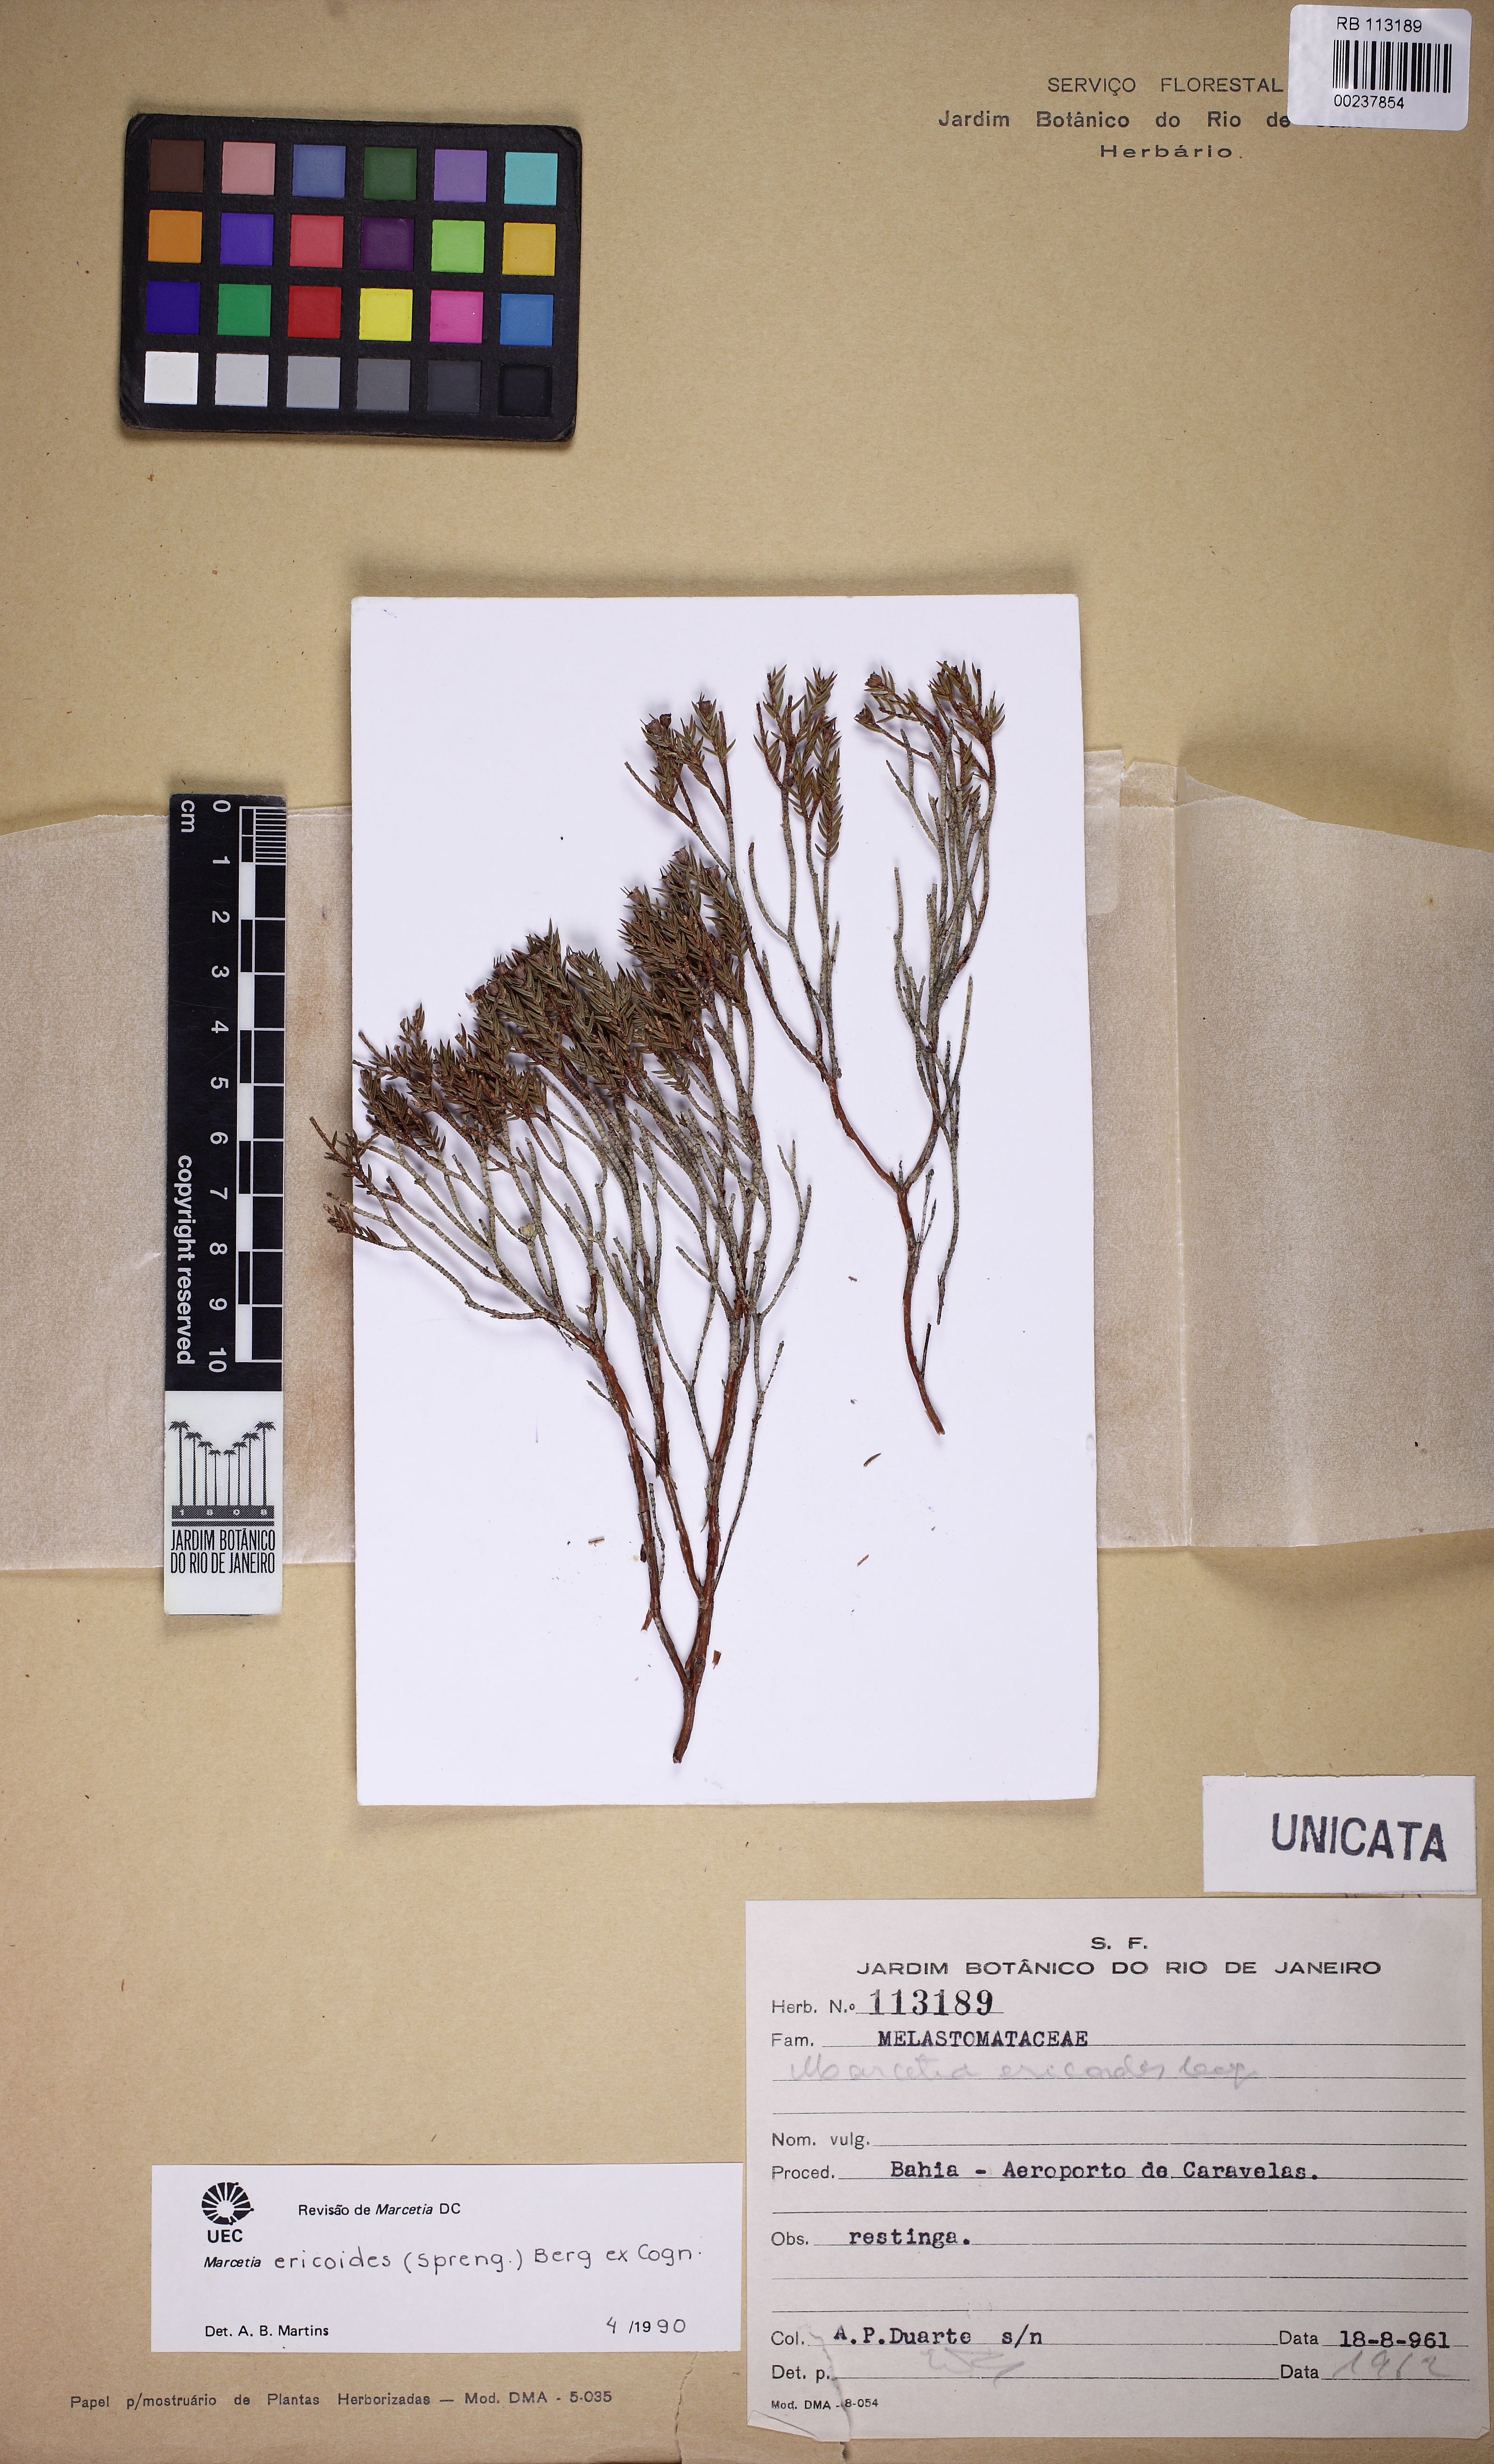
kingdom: Plantae
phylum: Tracheophyta
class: Magnoliopsida
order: Myrtales
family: Melastomataceae
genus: Marcetia
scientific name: Marcetia ericoides
